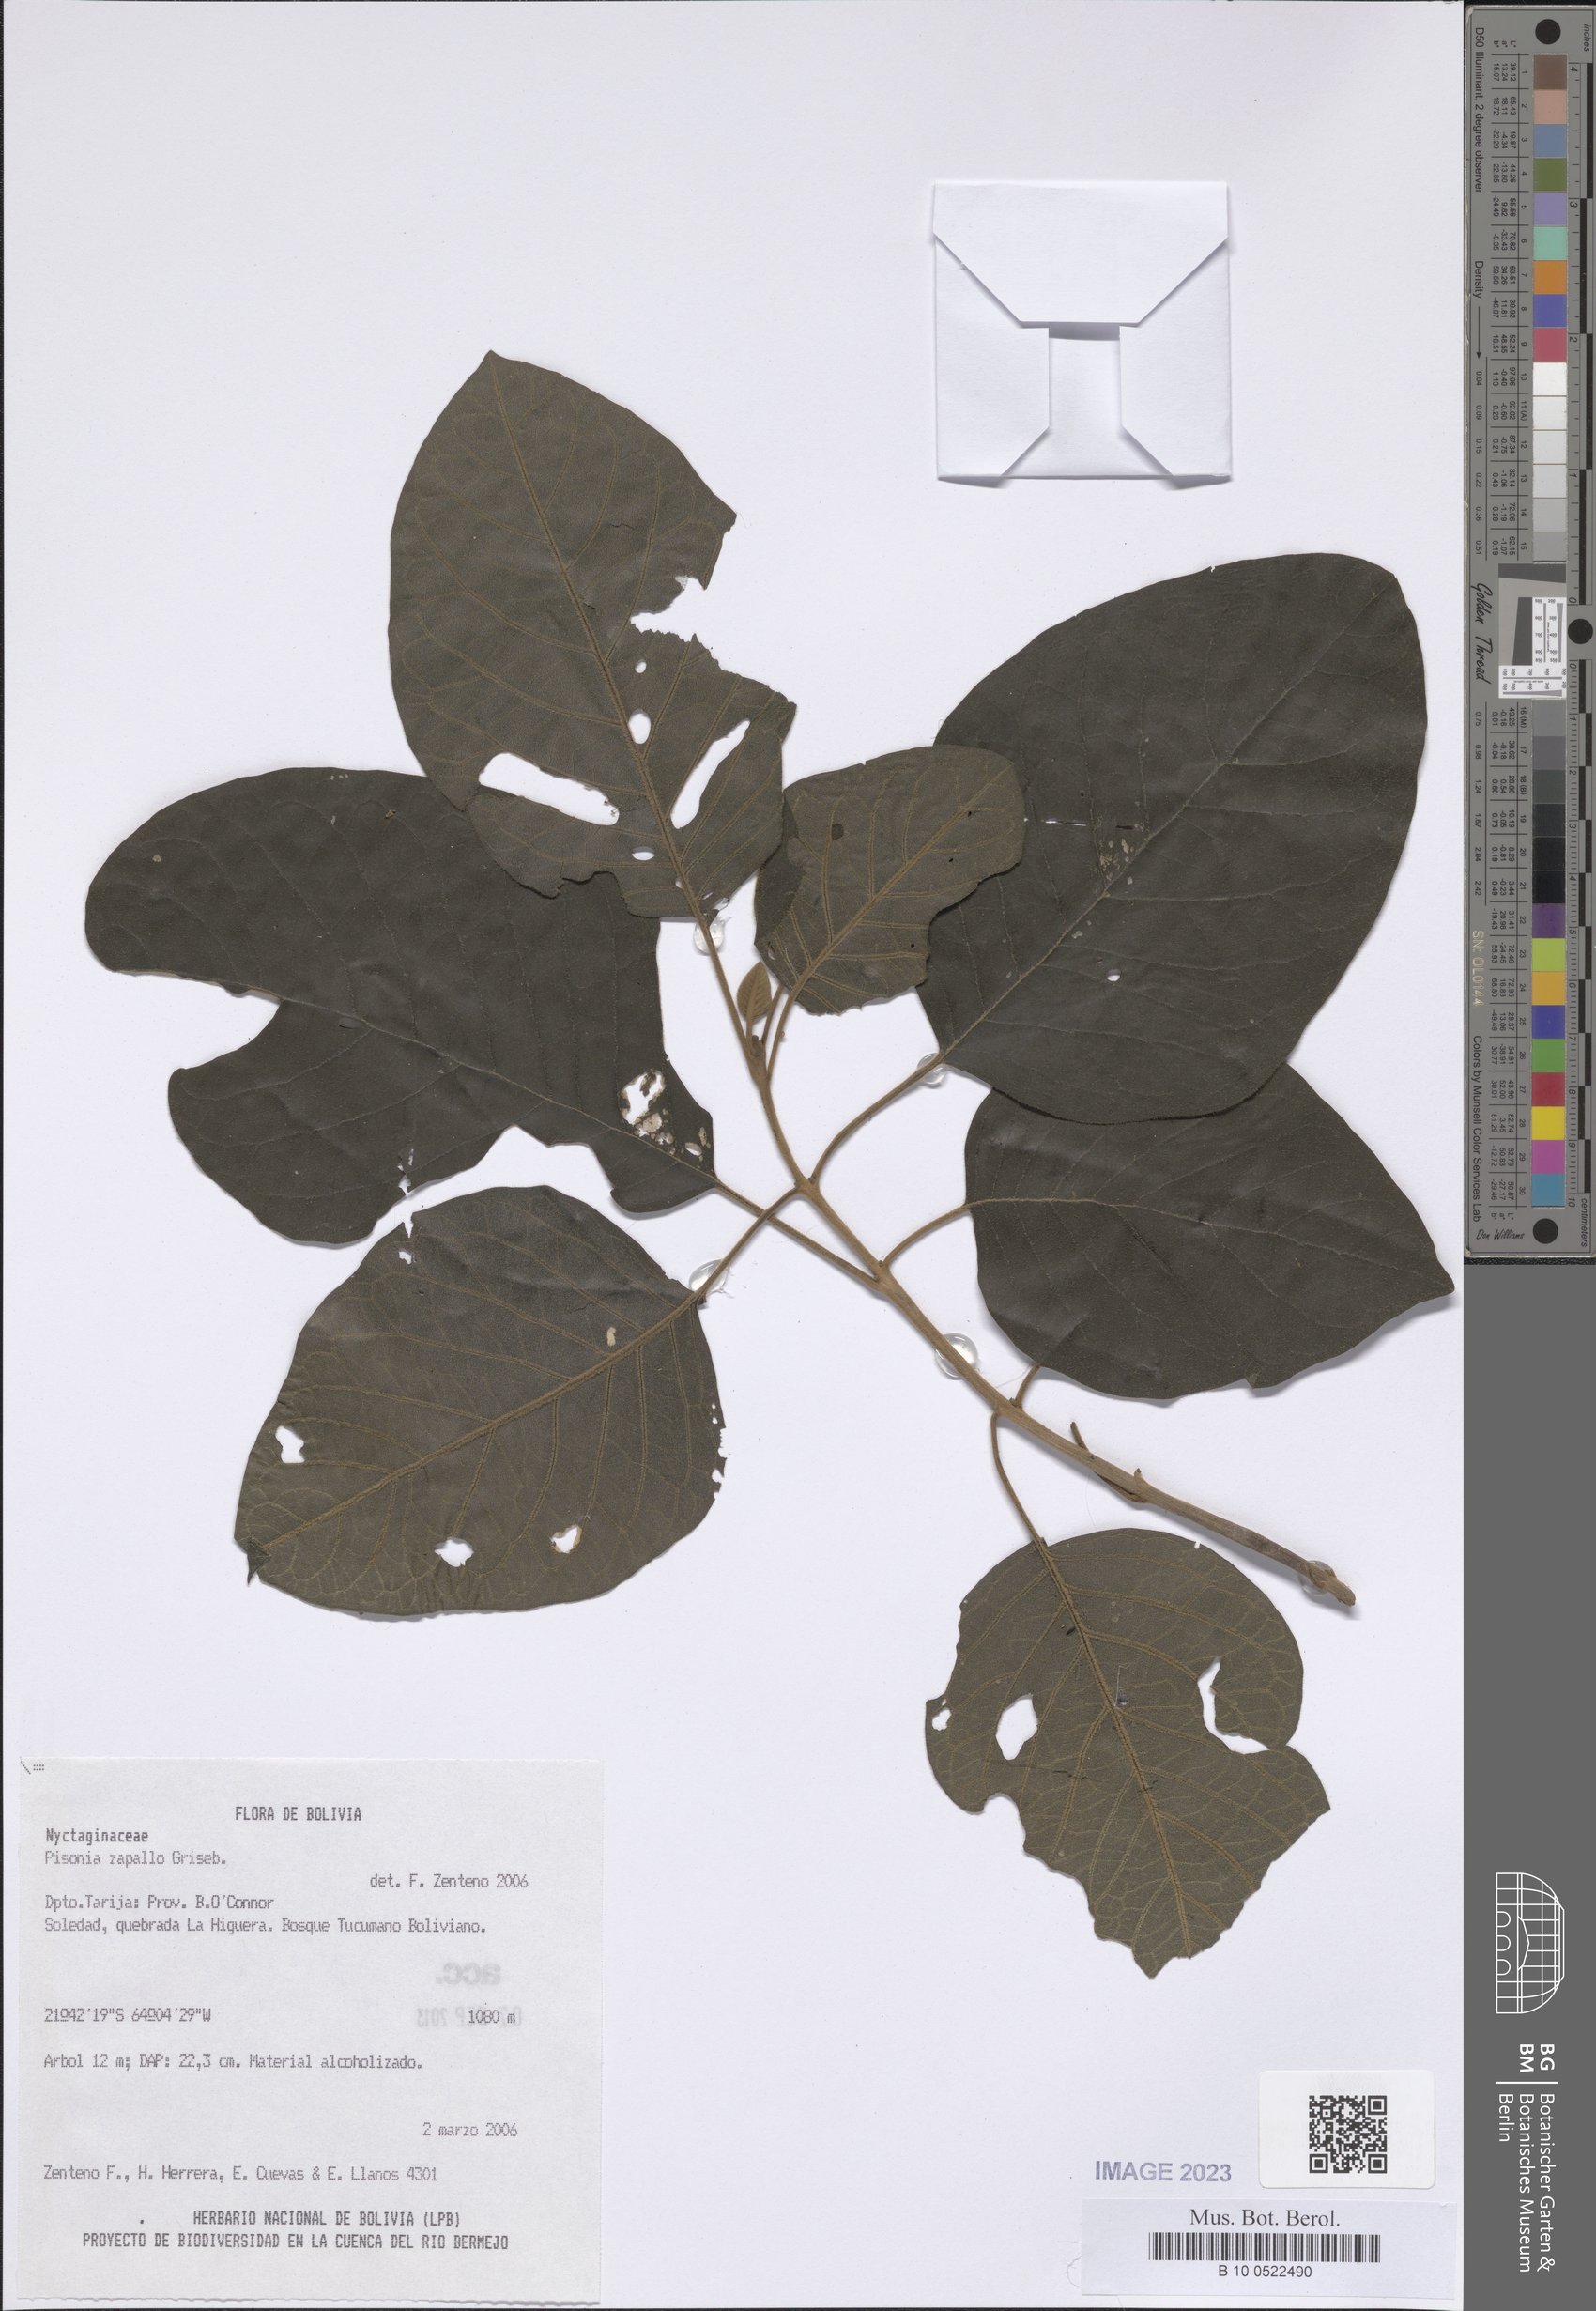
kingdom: Plantae
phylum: Tracheophyta
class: Magnoliopsida
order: Caryophyllales
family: Nyctaginaceae
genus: Pisonia
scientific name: Pisonia zapallo
